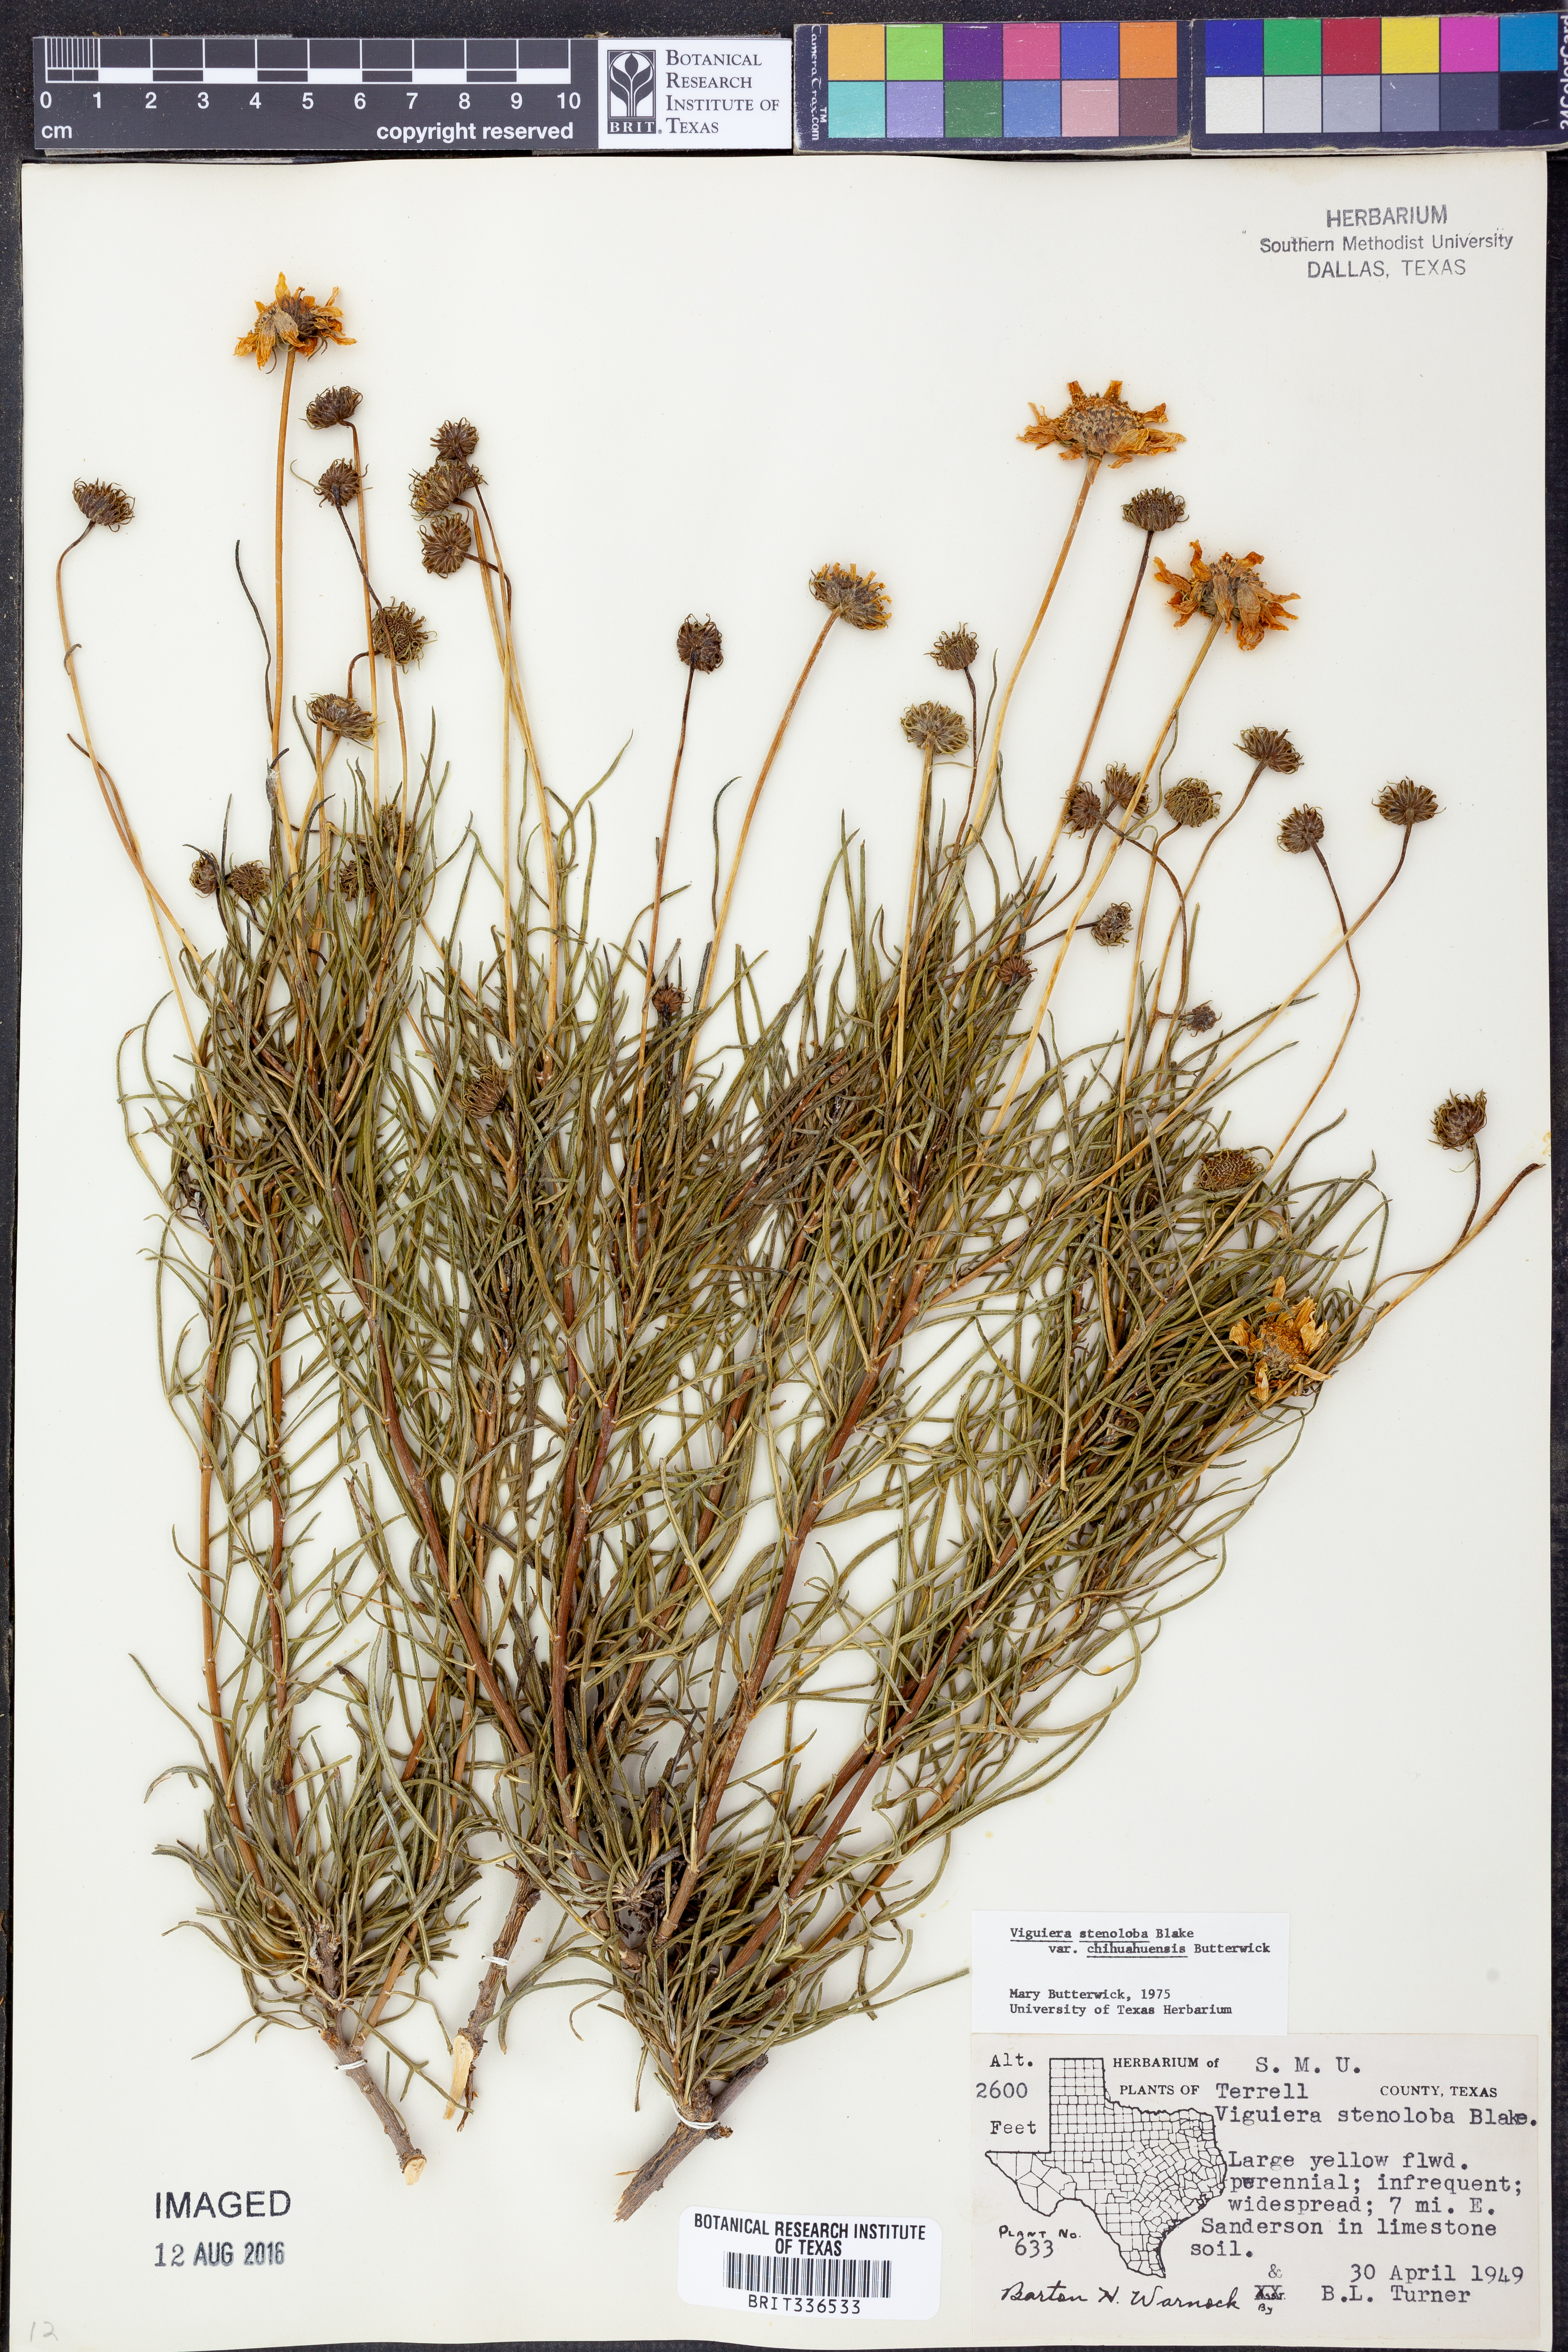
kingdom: Plantae
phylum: Tracheophyta
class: Magnoliopsida
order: Asterales
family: Asteraceae
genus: Sidneya
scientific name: Sidneya tenuifolia
